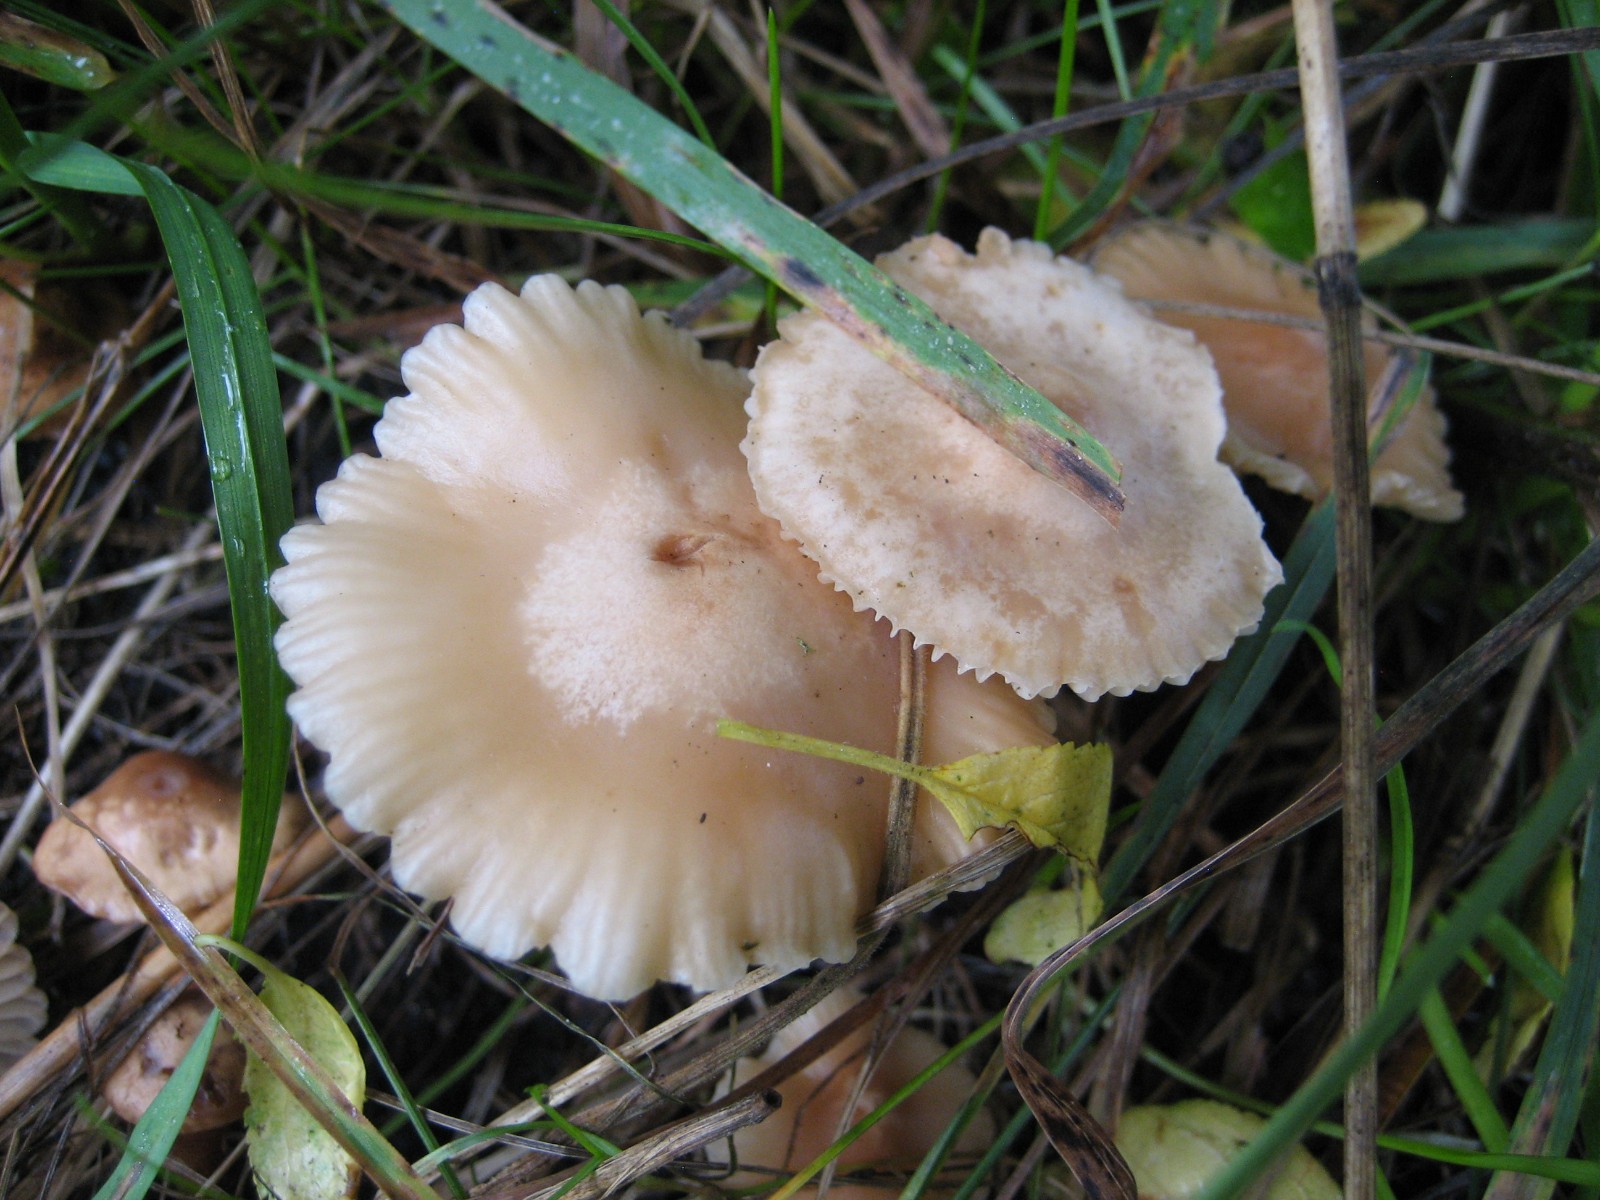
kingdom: Fungi
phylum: Basidiomycota
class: Agaricomycetes
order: Agaricales
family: Marasmiaceae
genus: Marasmius
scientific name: Marasmius oreades
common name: elledans-bruskhat
